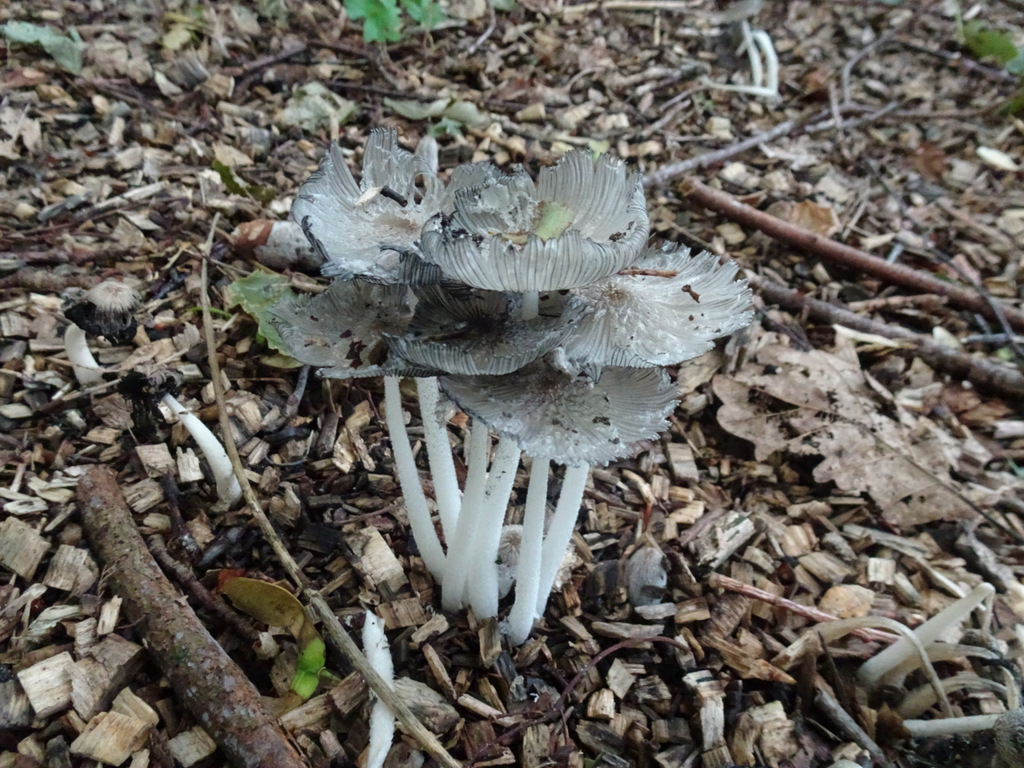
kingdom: Fungi
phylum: Basidiomycota
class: Agaricomycetes
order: Agaricales
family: Psathyrellaceae
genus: Coprinopsis
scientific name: Coprinopsis lagopus
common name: dunstokket blækhat
